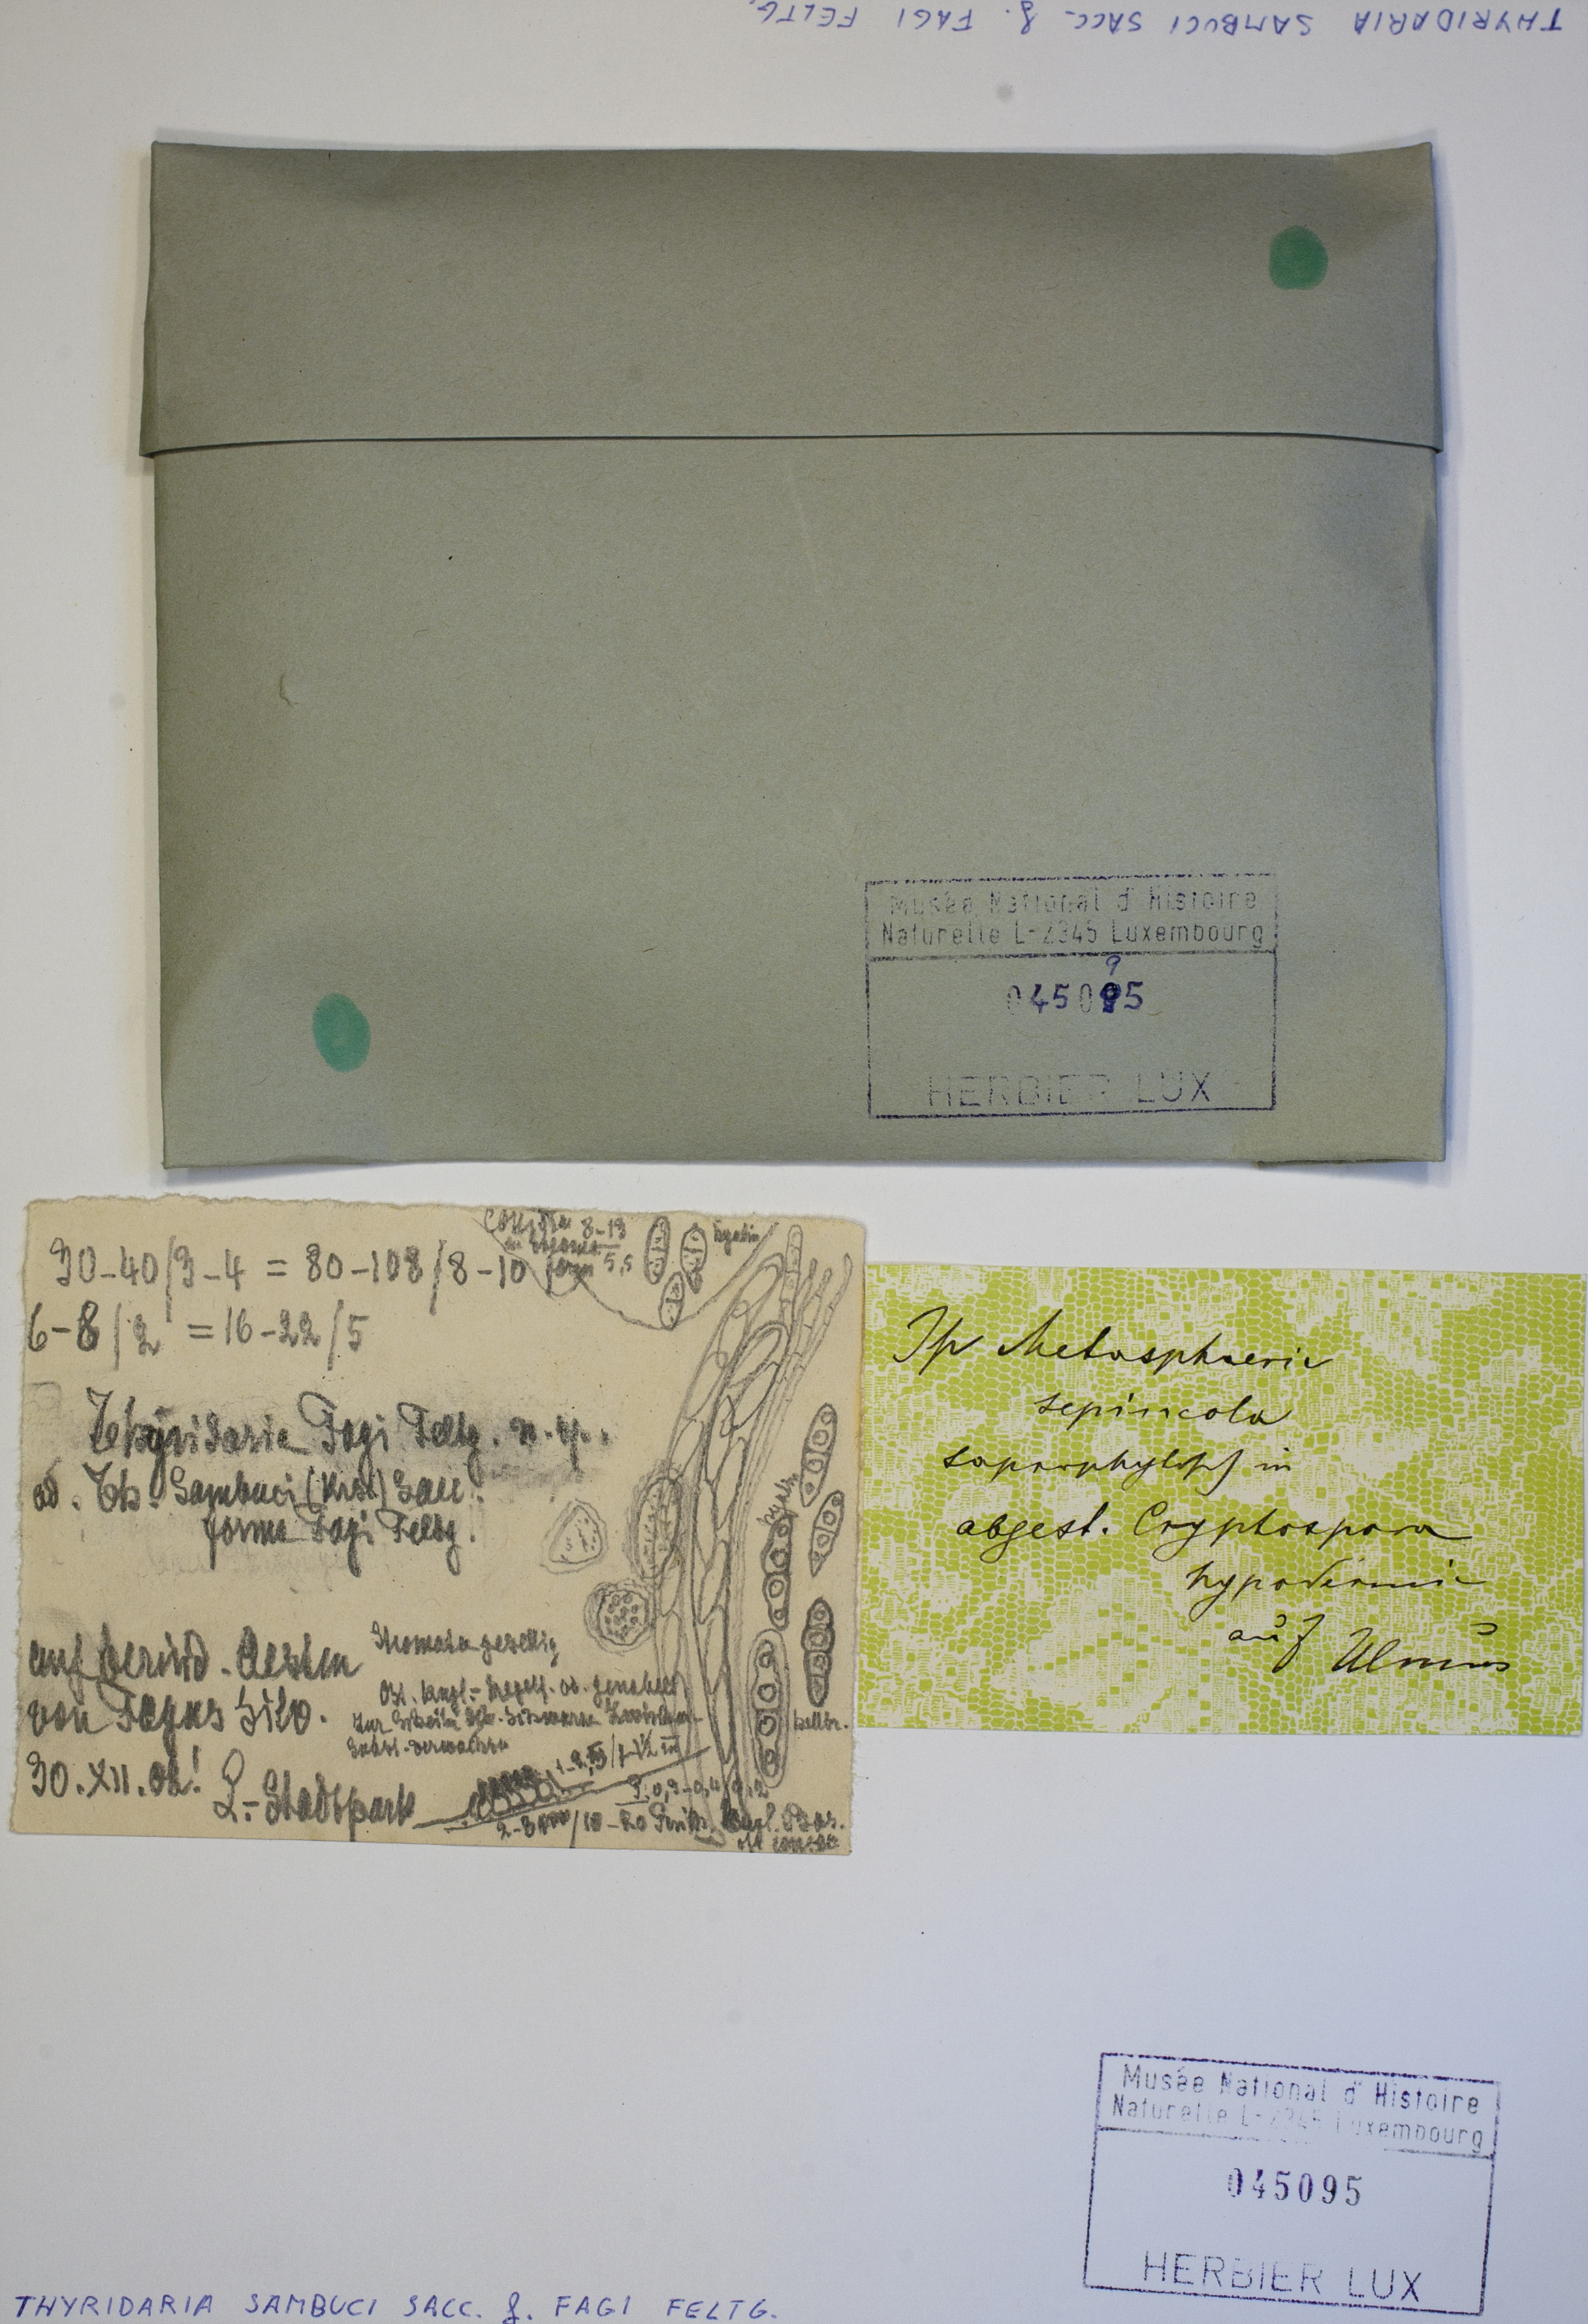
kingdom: Fungi
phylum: Ascomycota
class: Dothideomycetes
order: Pleosporales
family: Thyridariaceae
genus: Thyridaria
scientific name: Thyridaria sambuci
